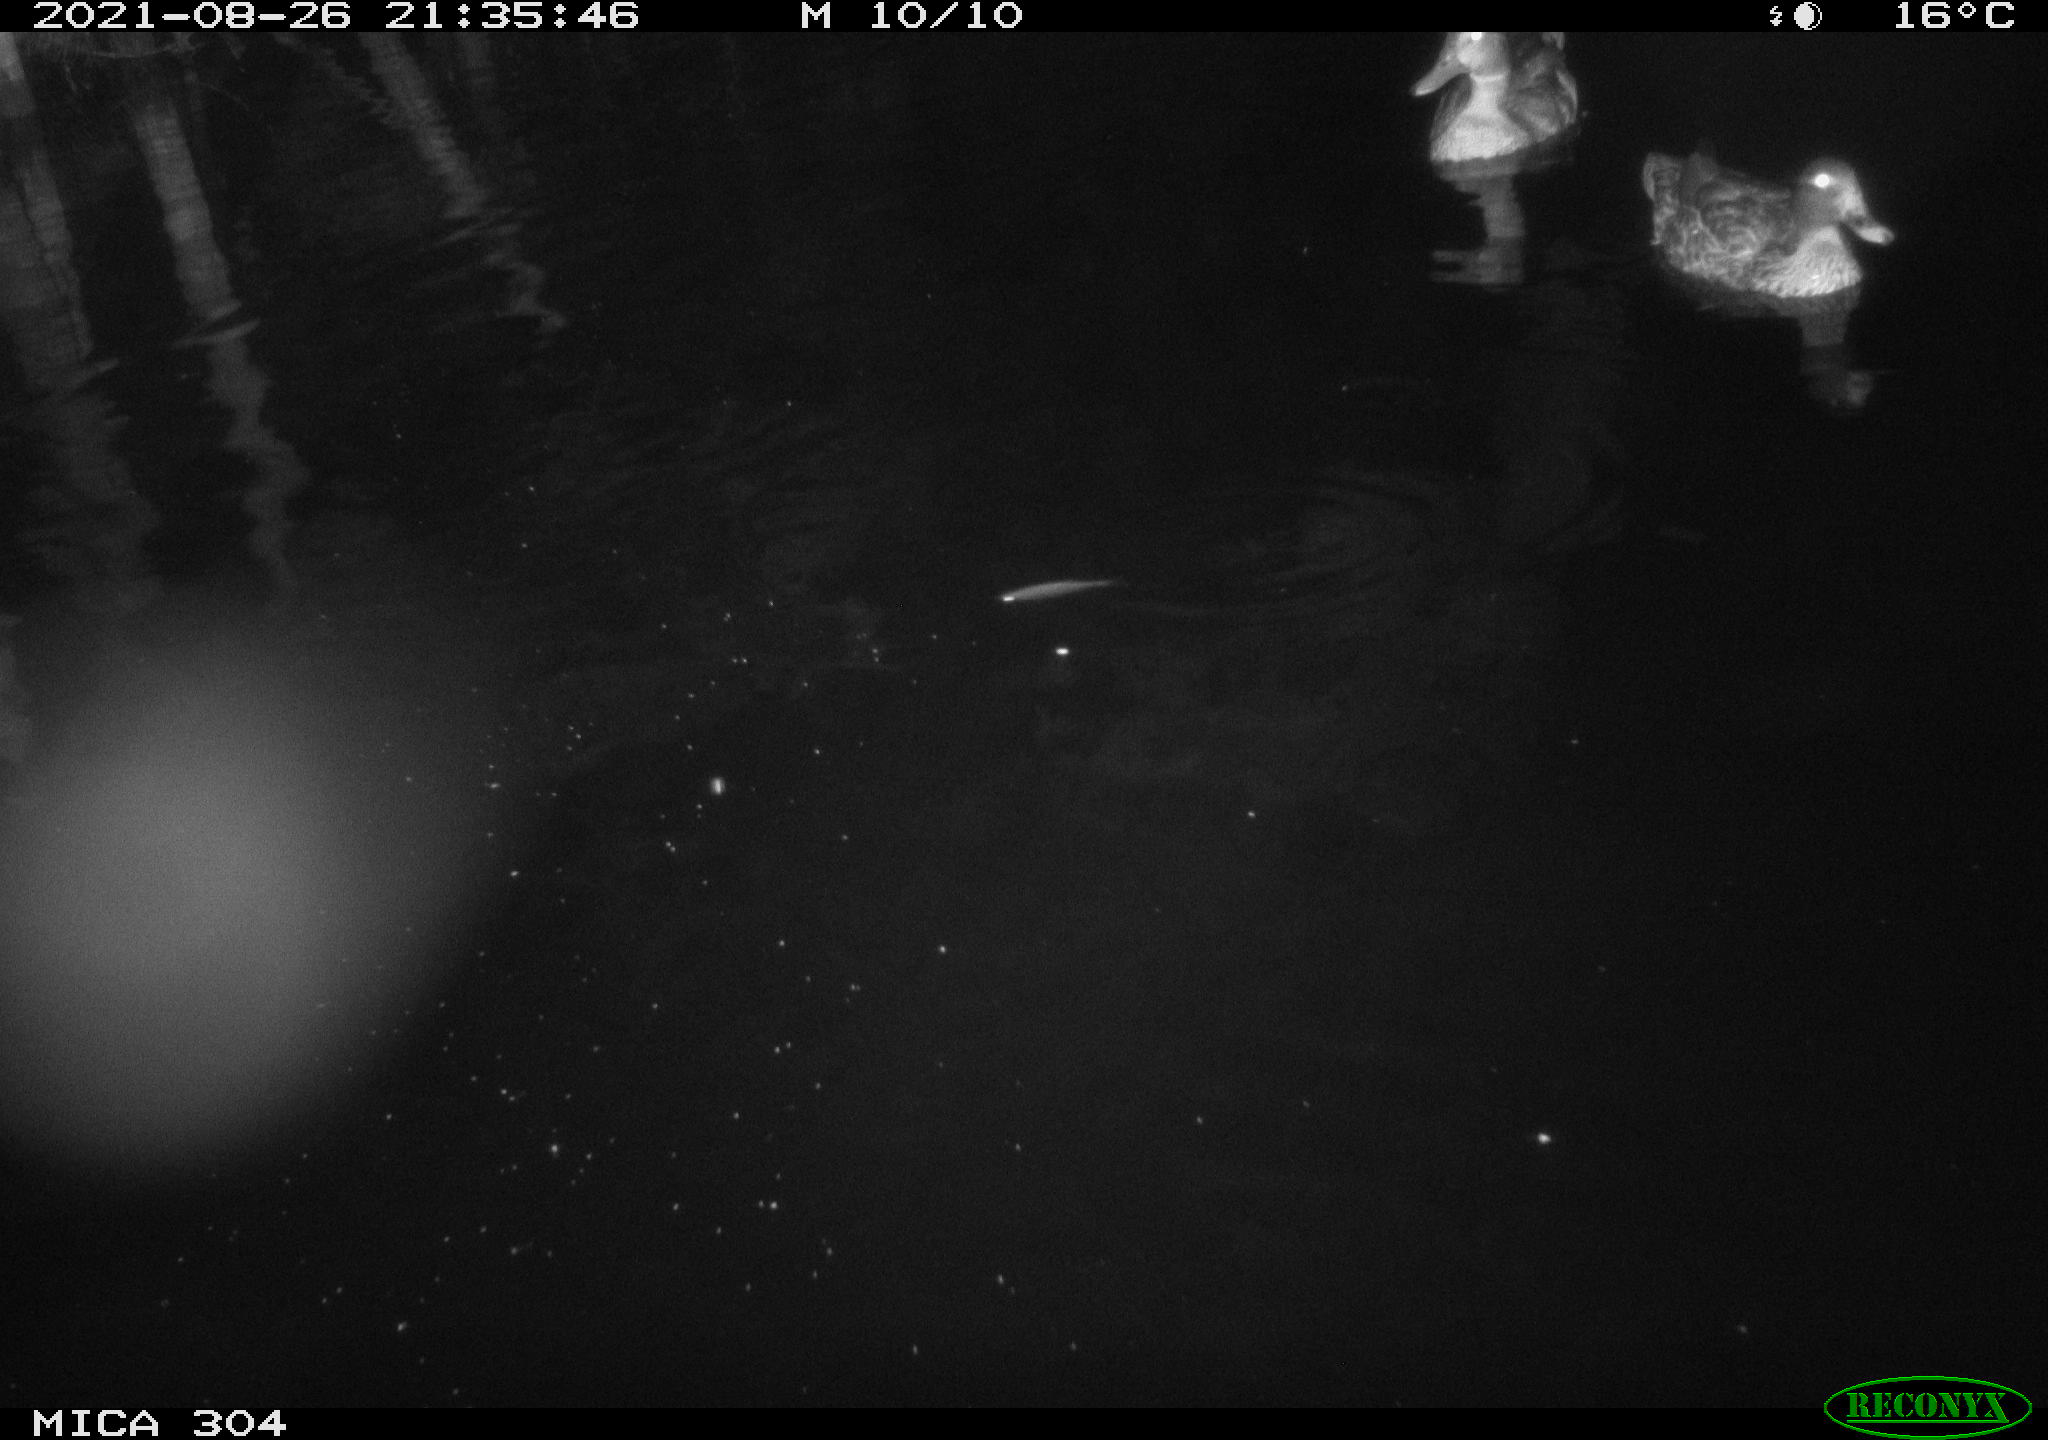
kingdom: Animalia
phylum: Chordata
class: Mammalia
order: Rodentia
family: Muridae
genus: Rattus
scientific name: Rattus norvegicus
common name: Brown rat
